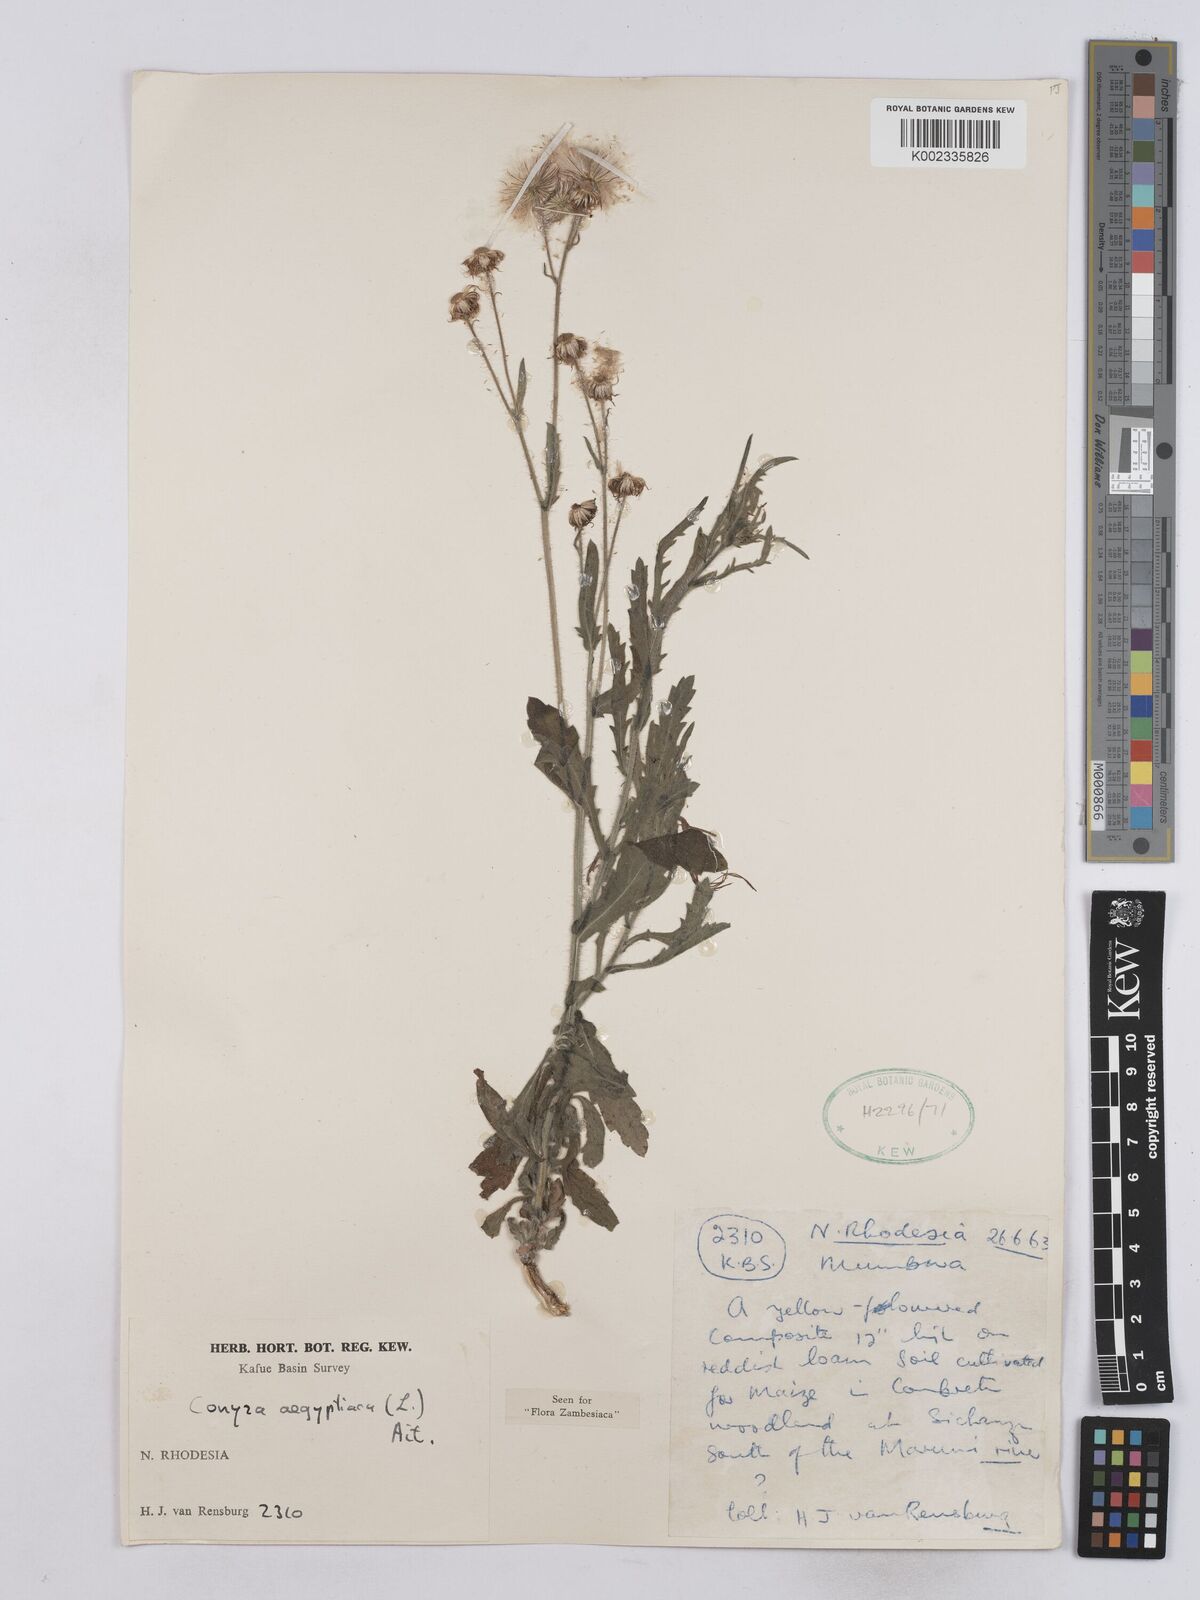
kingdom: Plantae
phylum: Tracheophyta
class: Magnoliopsida
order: Asterales
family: Asteraceae
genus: Nidorella
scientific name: Nidorella aegyptiaca
